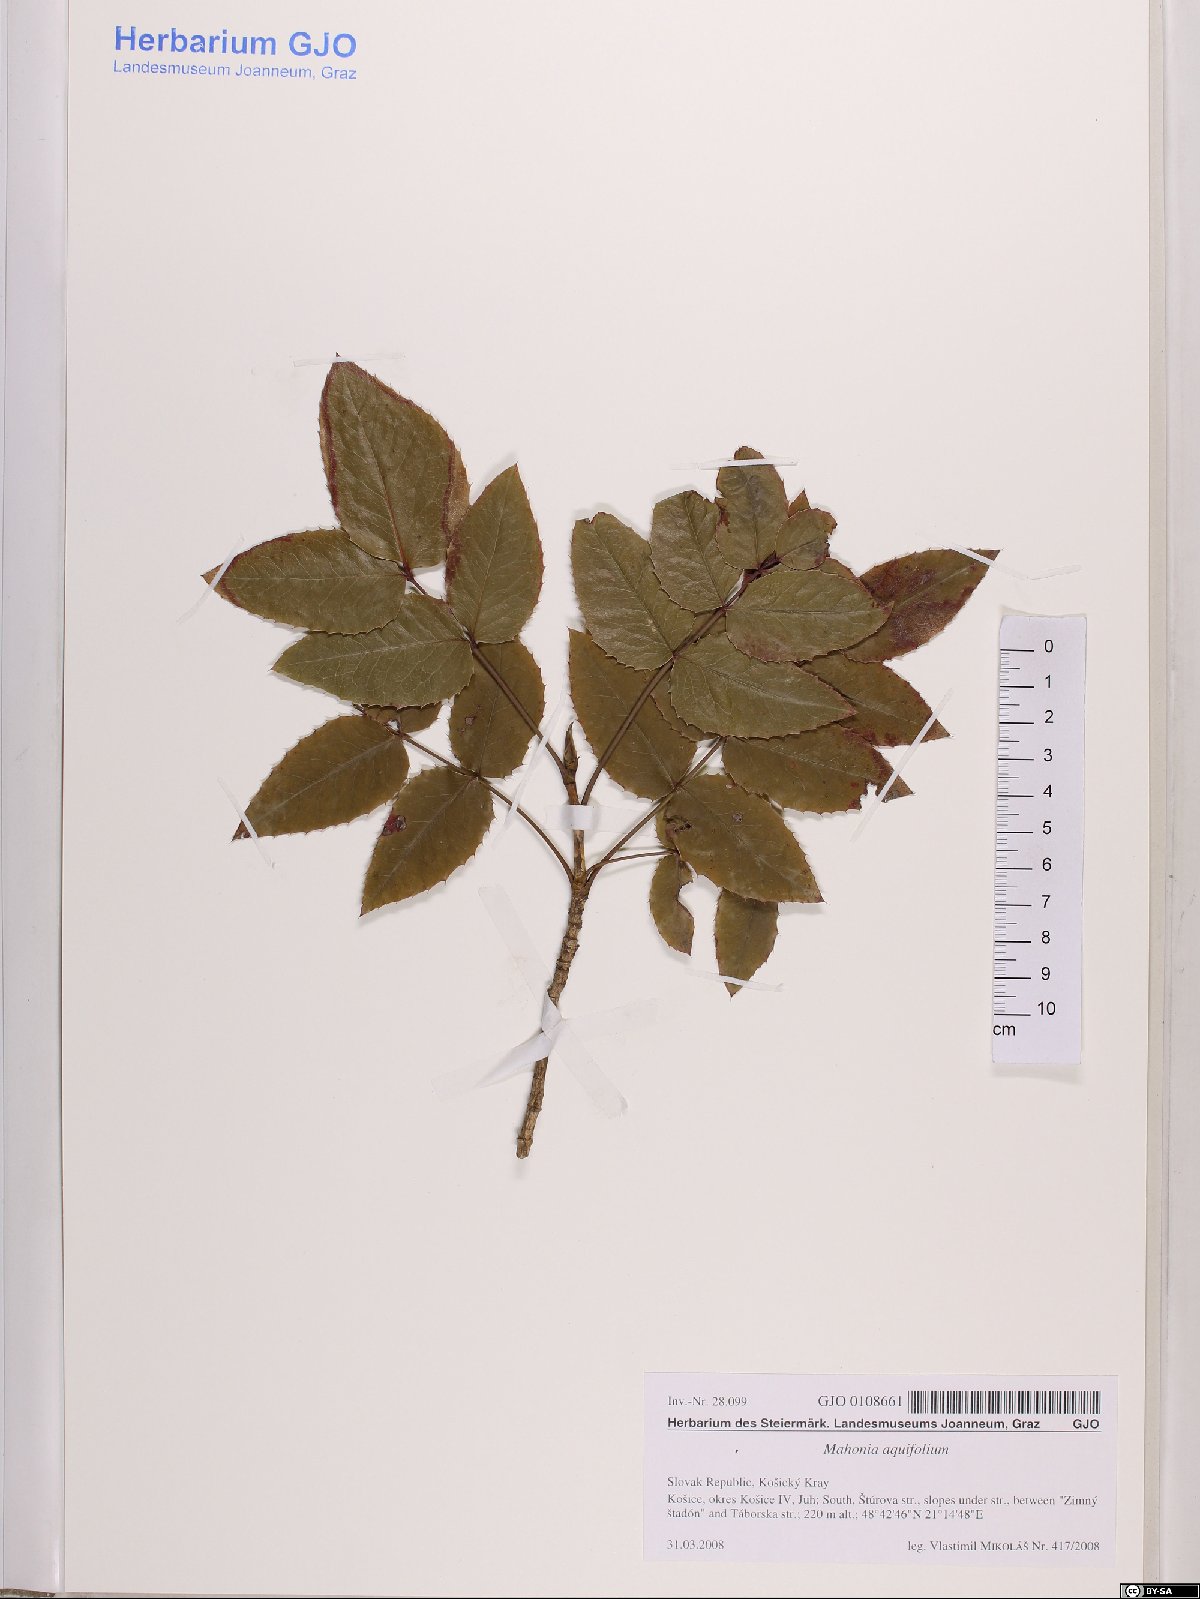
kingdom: Plantae
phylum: Tracheophyta
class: Magnoliopsida
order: Ranunculales
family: Berberidaceae
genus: Mahonia
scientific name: Mahonia aquifolium
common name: Oregon-grape
